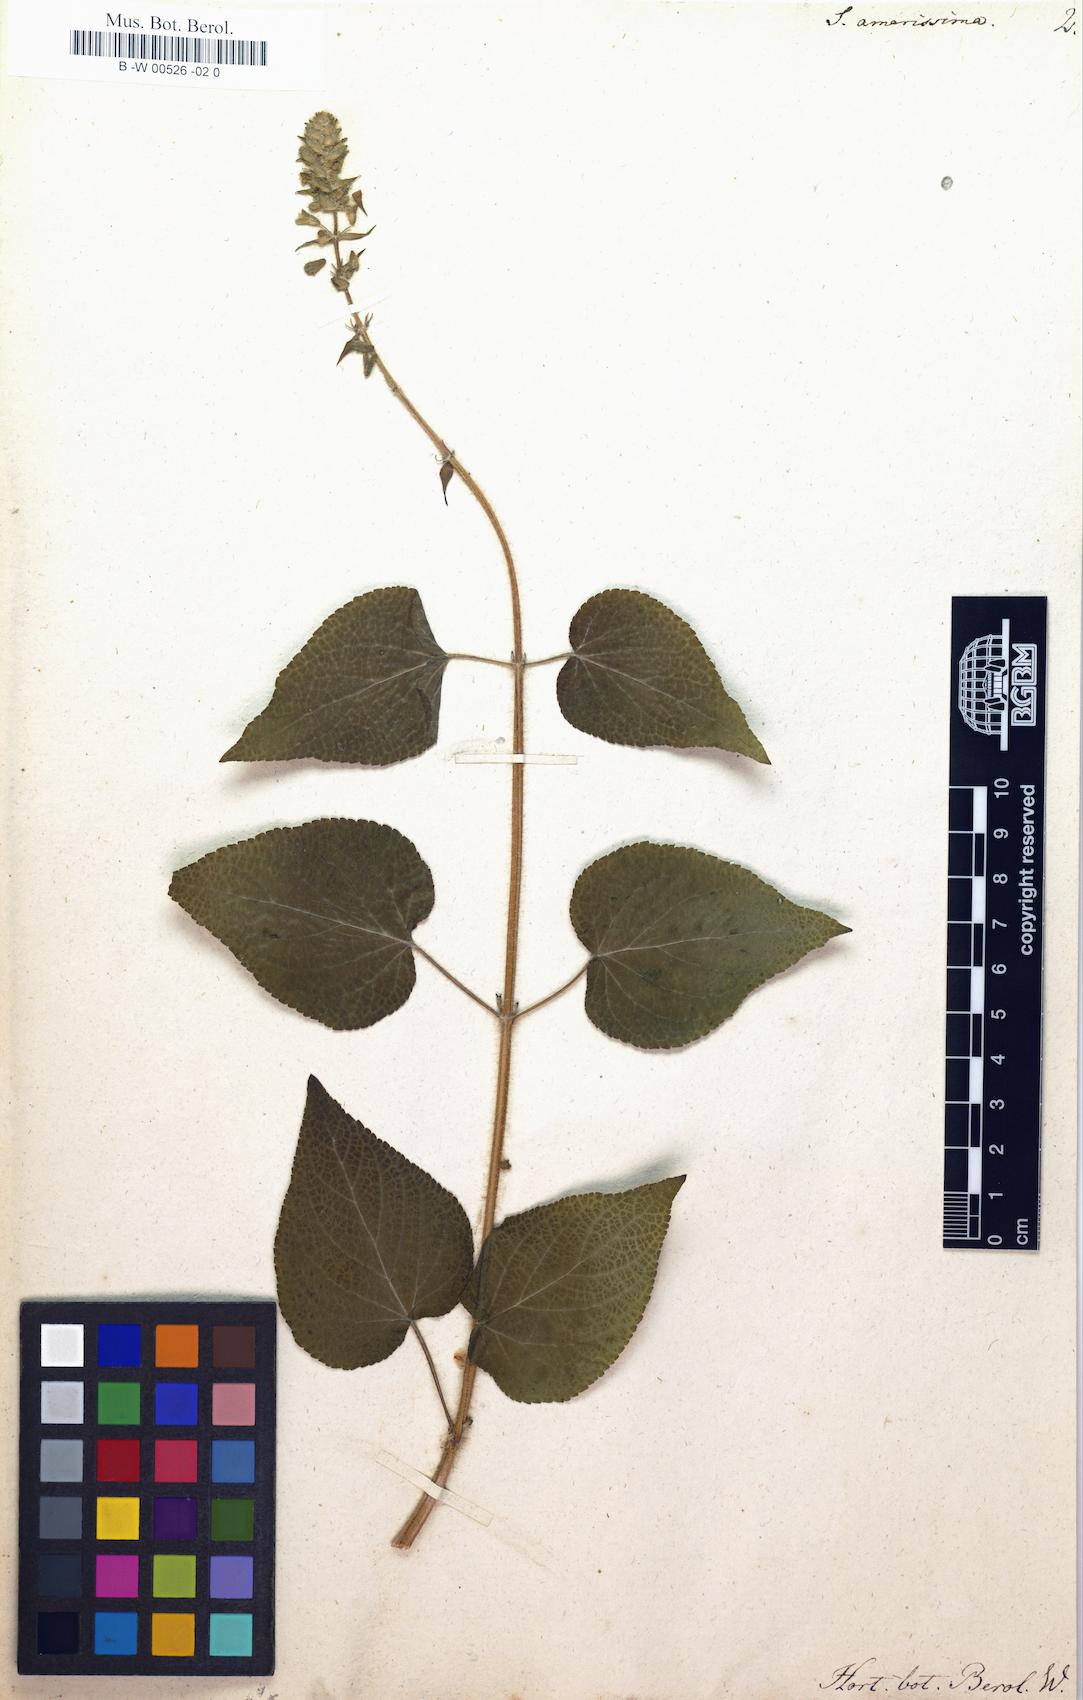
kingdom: Plantae
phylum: Tracheophyta
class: Magnoliopsida
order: Lamiales
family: Lamiaceae
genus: Salvia
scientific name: Salvia circinnata
